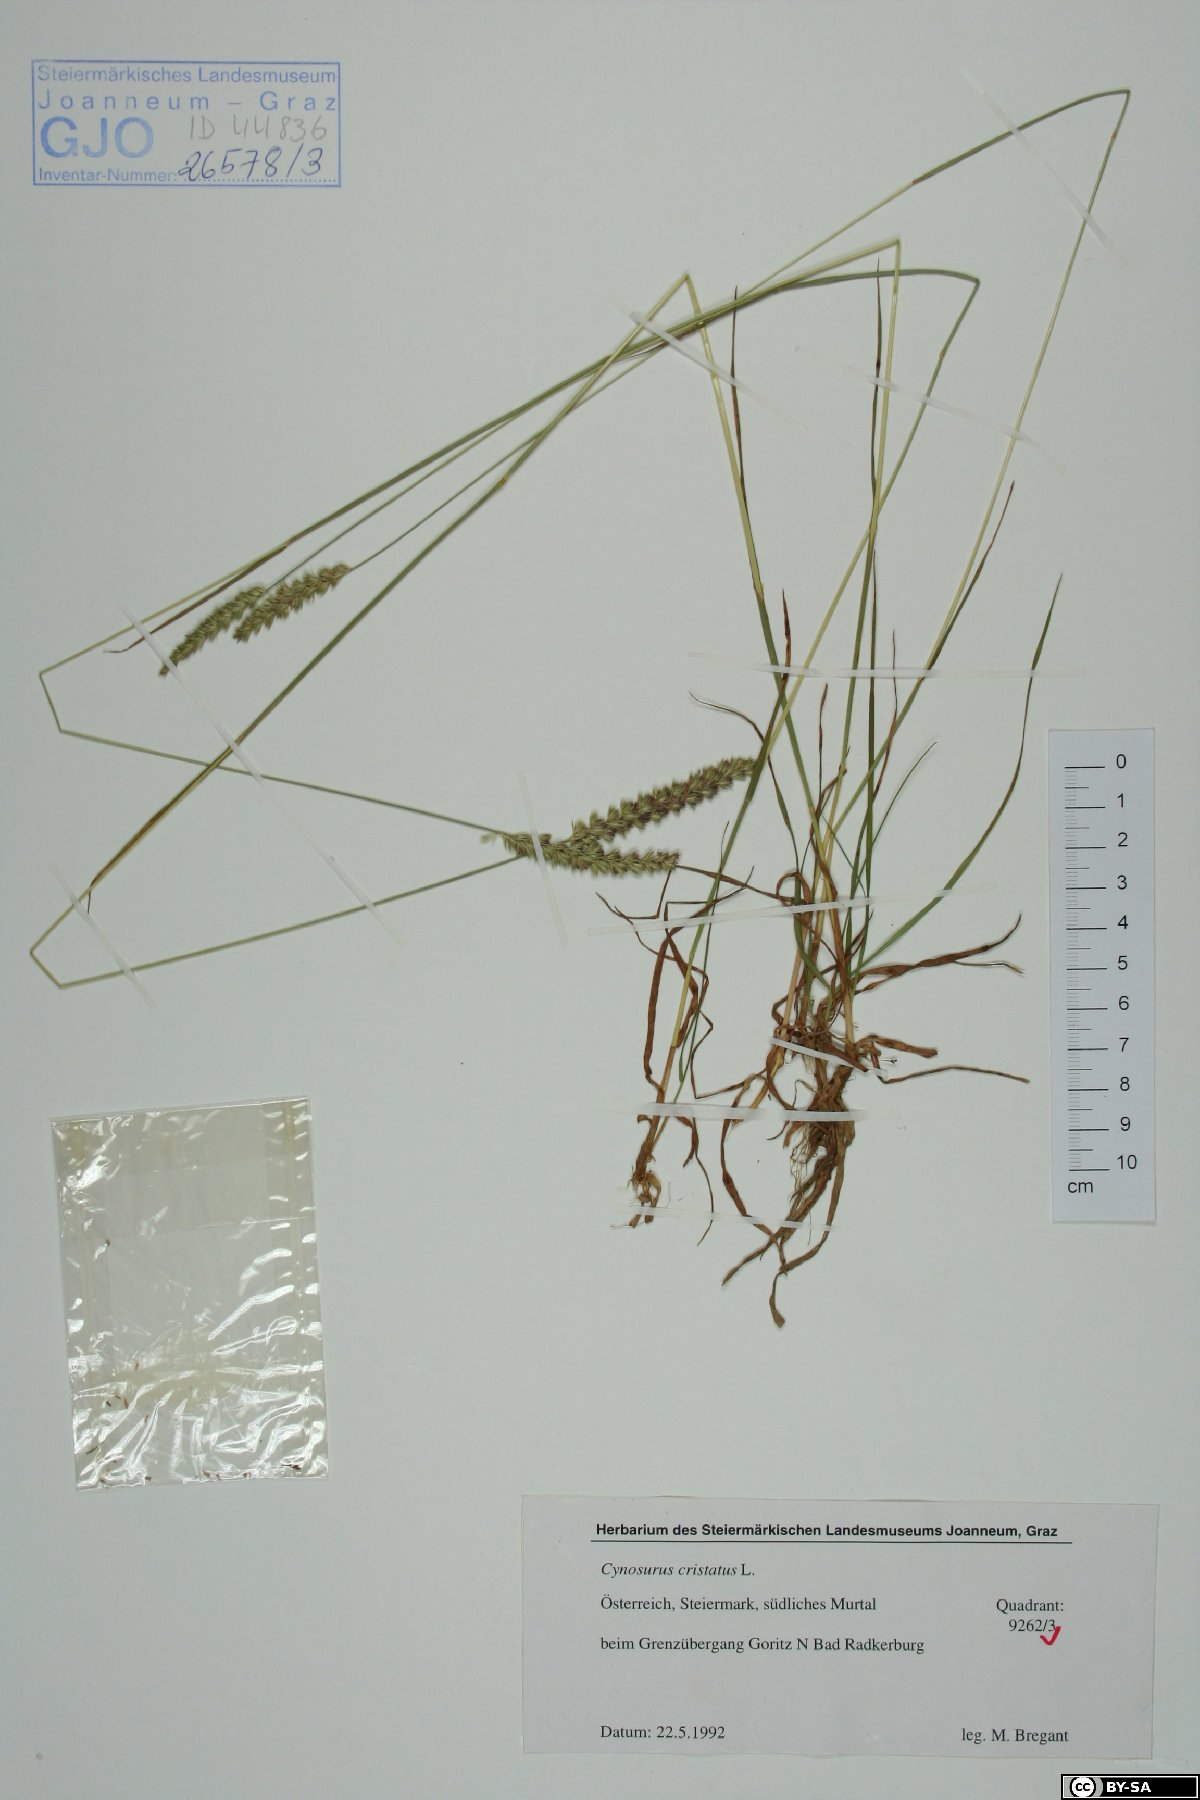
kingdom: Plantae
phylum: Tracheophyta
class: Liliopsida
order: Poales
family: Poaceae
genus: Cynosurus
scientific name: Cynosurus cristatus
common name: Crested dog's-tail
